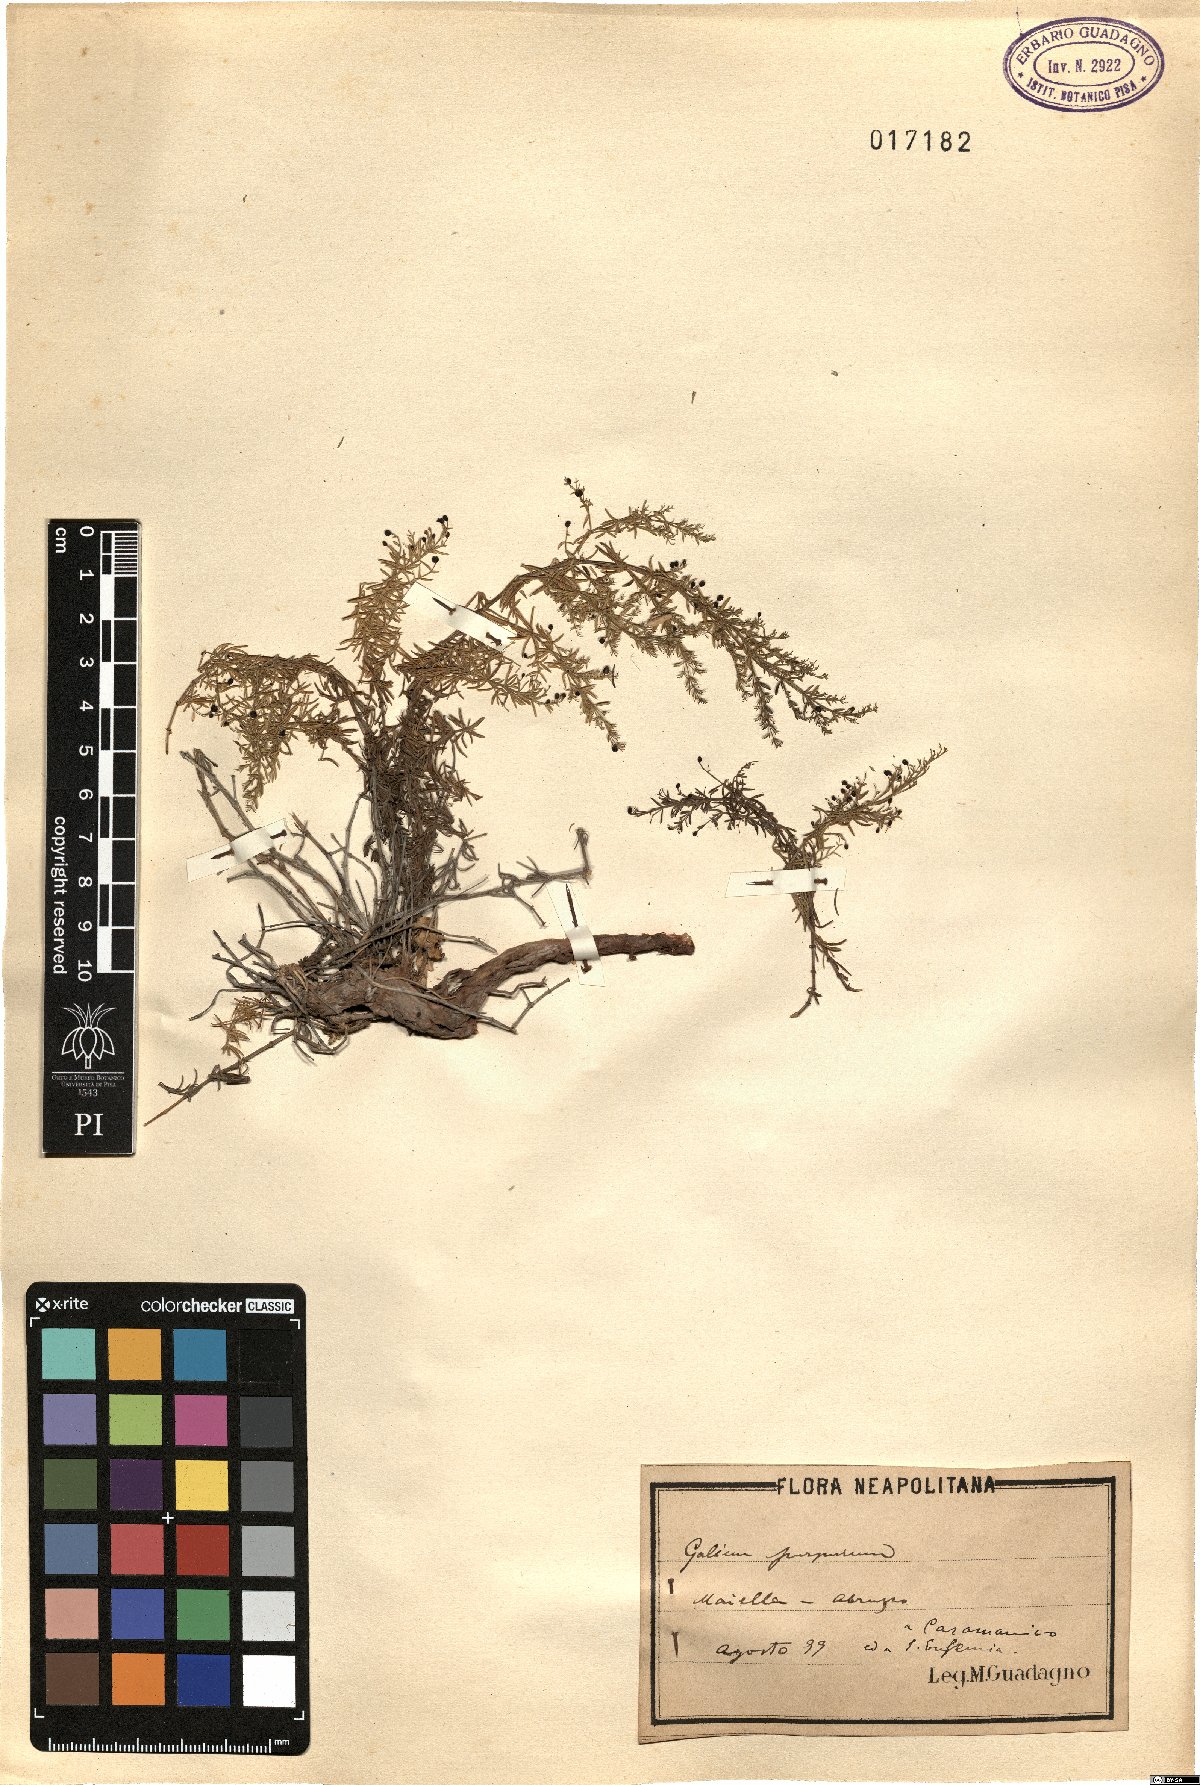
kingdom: Plantae
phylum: Tracheophyta
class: Magnoliopsida
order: Gentianales
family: Rubiaceae
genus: Thliphthisa
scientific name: Thliphthisa purpurea
